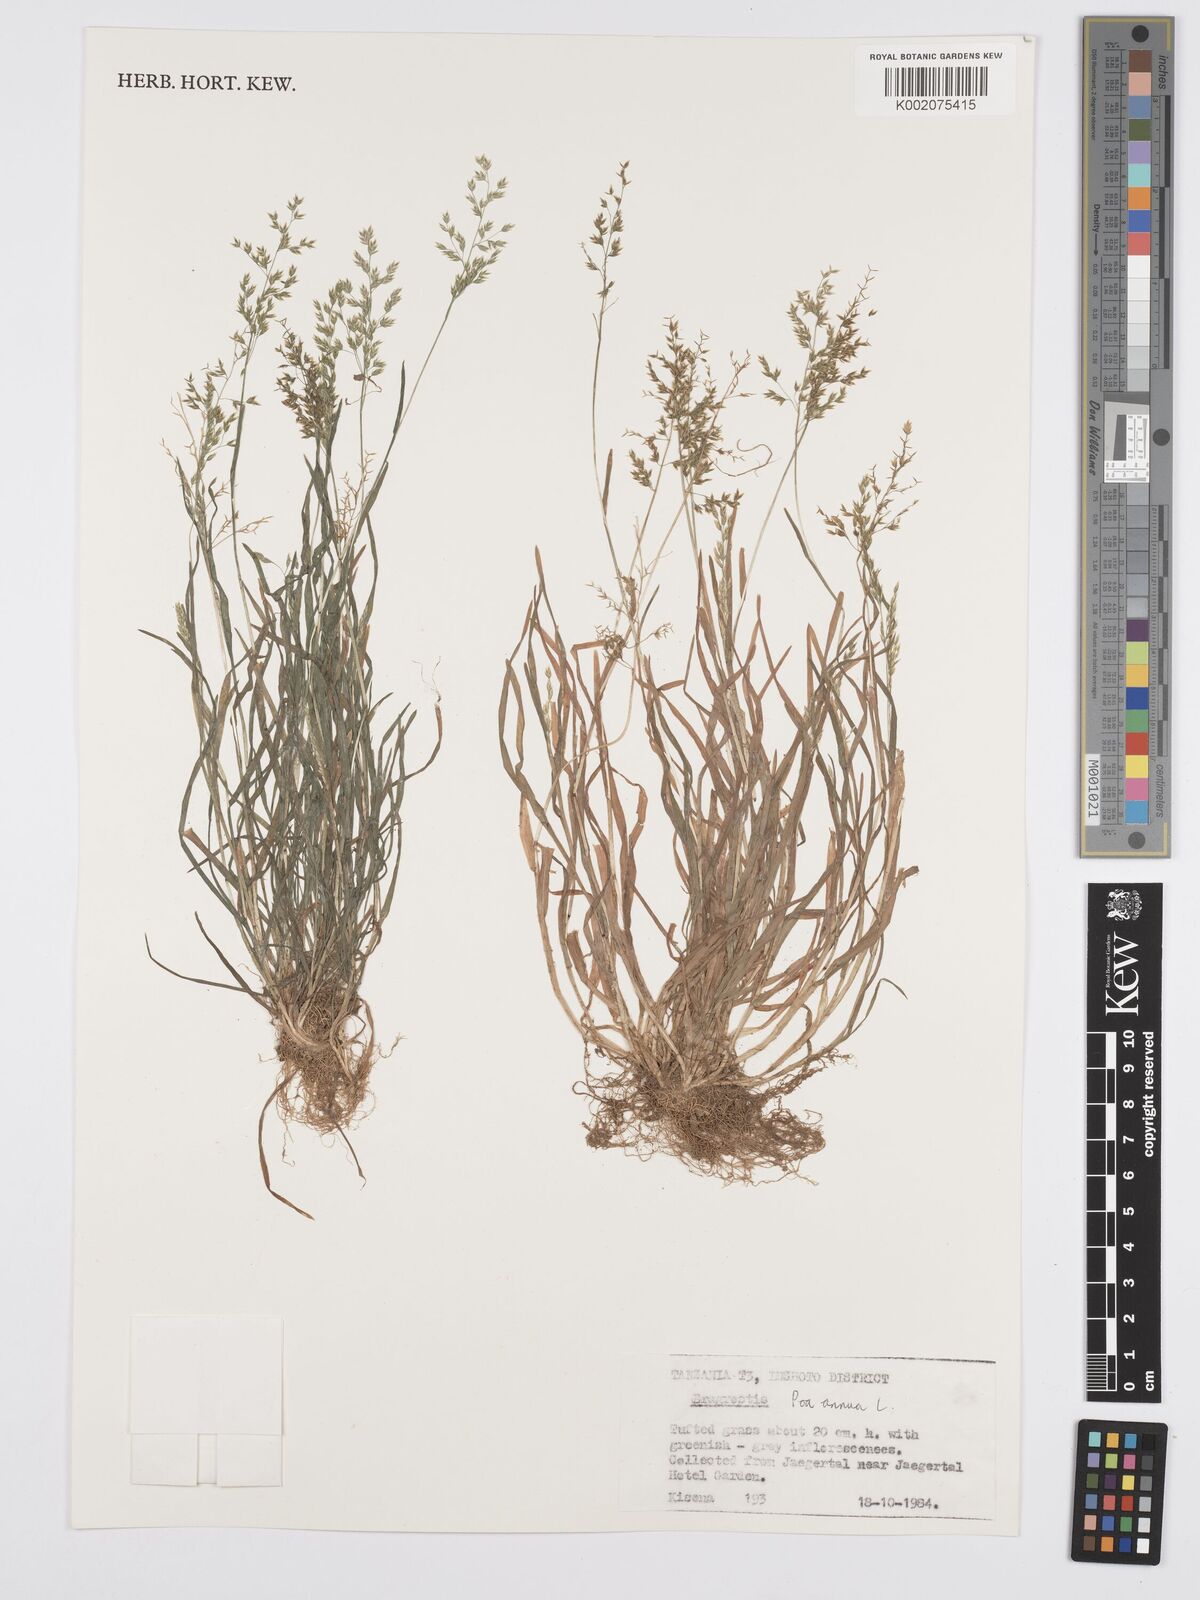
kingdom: Plantae
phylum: Tracheophyta
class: Liliopsida
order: Poales
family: Poaceae
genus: Poa
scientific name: Poa annua
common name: Annual bluegrass
